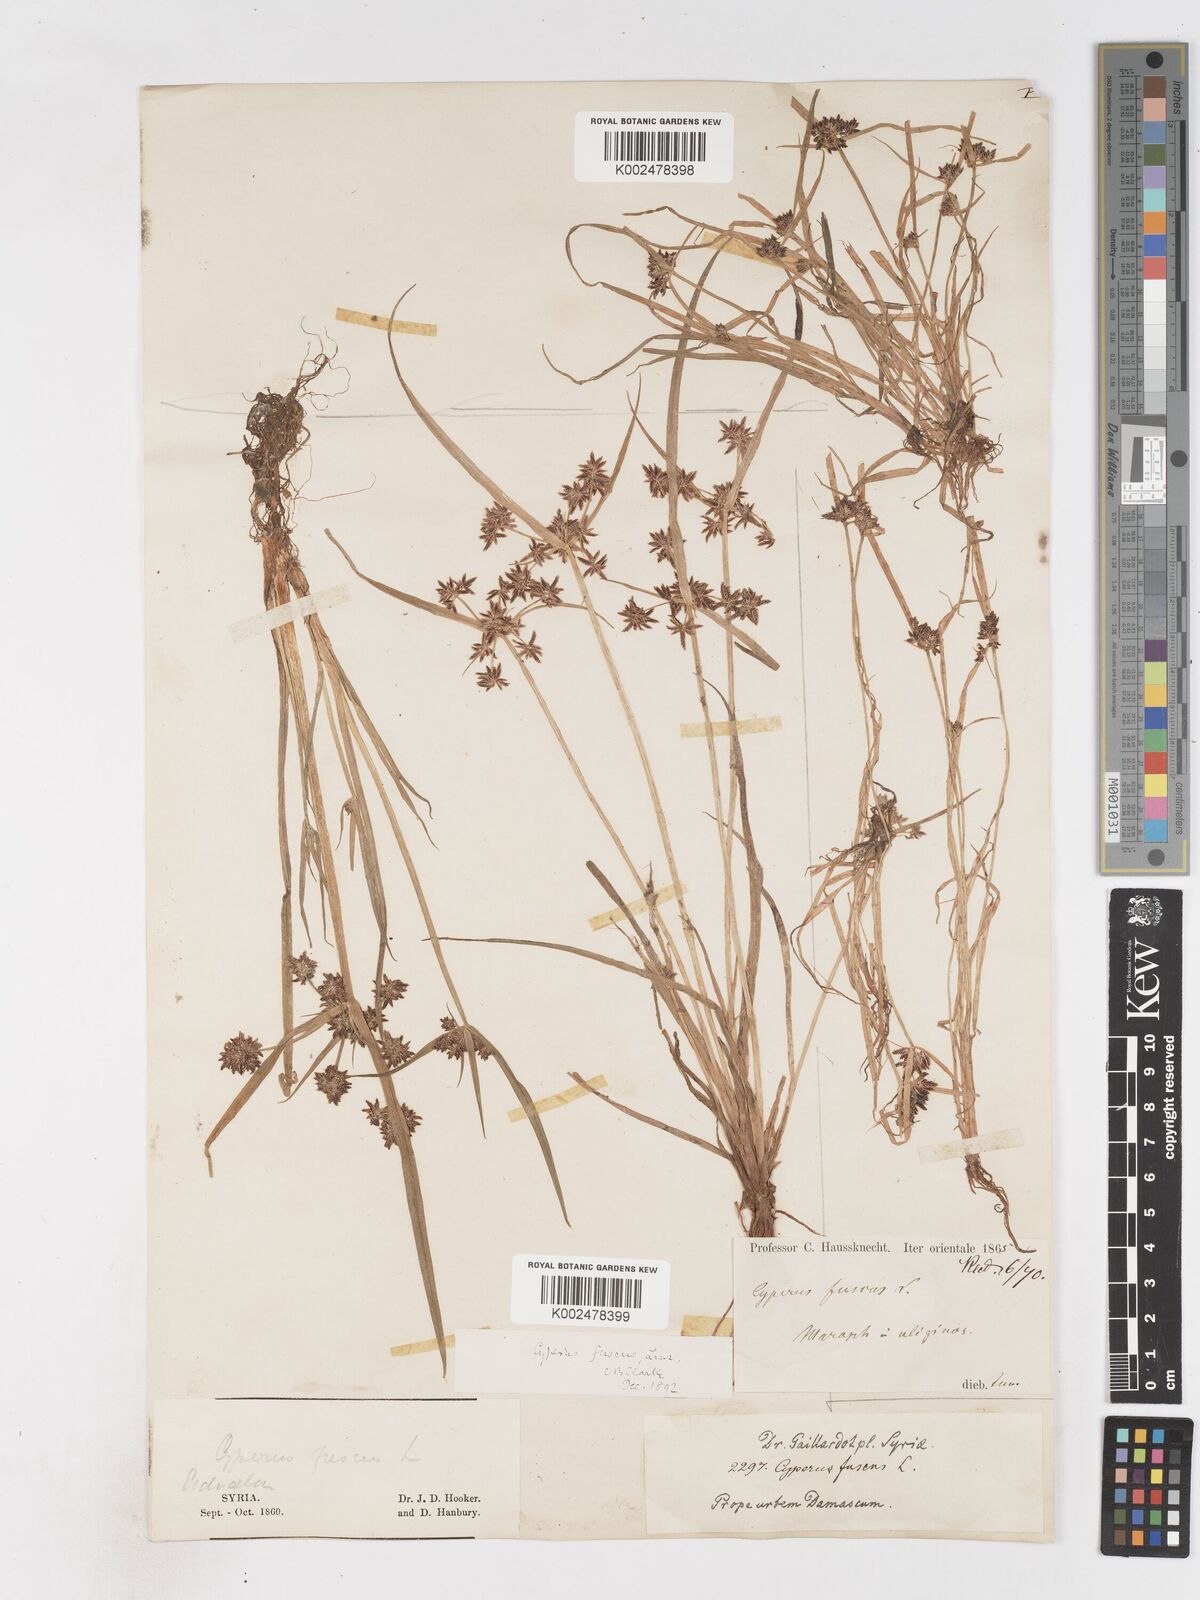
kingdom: Plantae
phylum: Tracheophyta
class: Liliopsida
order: Poales
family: Cyperaceae
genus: Cyperus
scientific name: Cyperus fuscus
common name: Brown galingale
